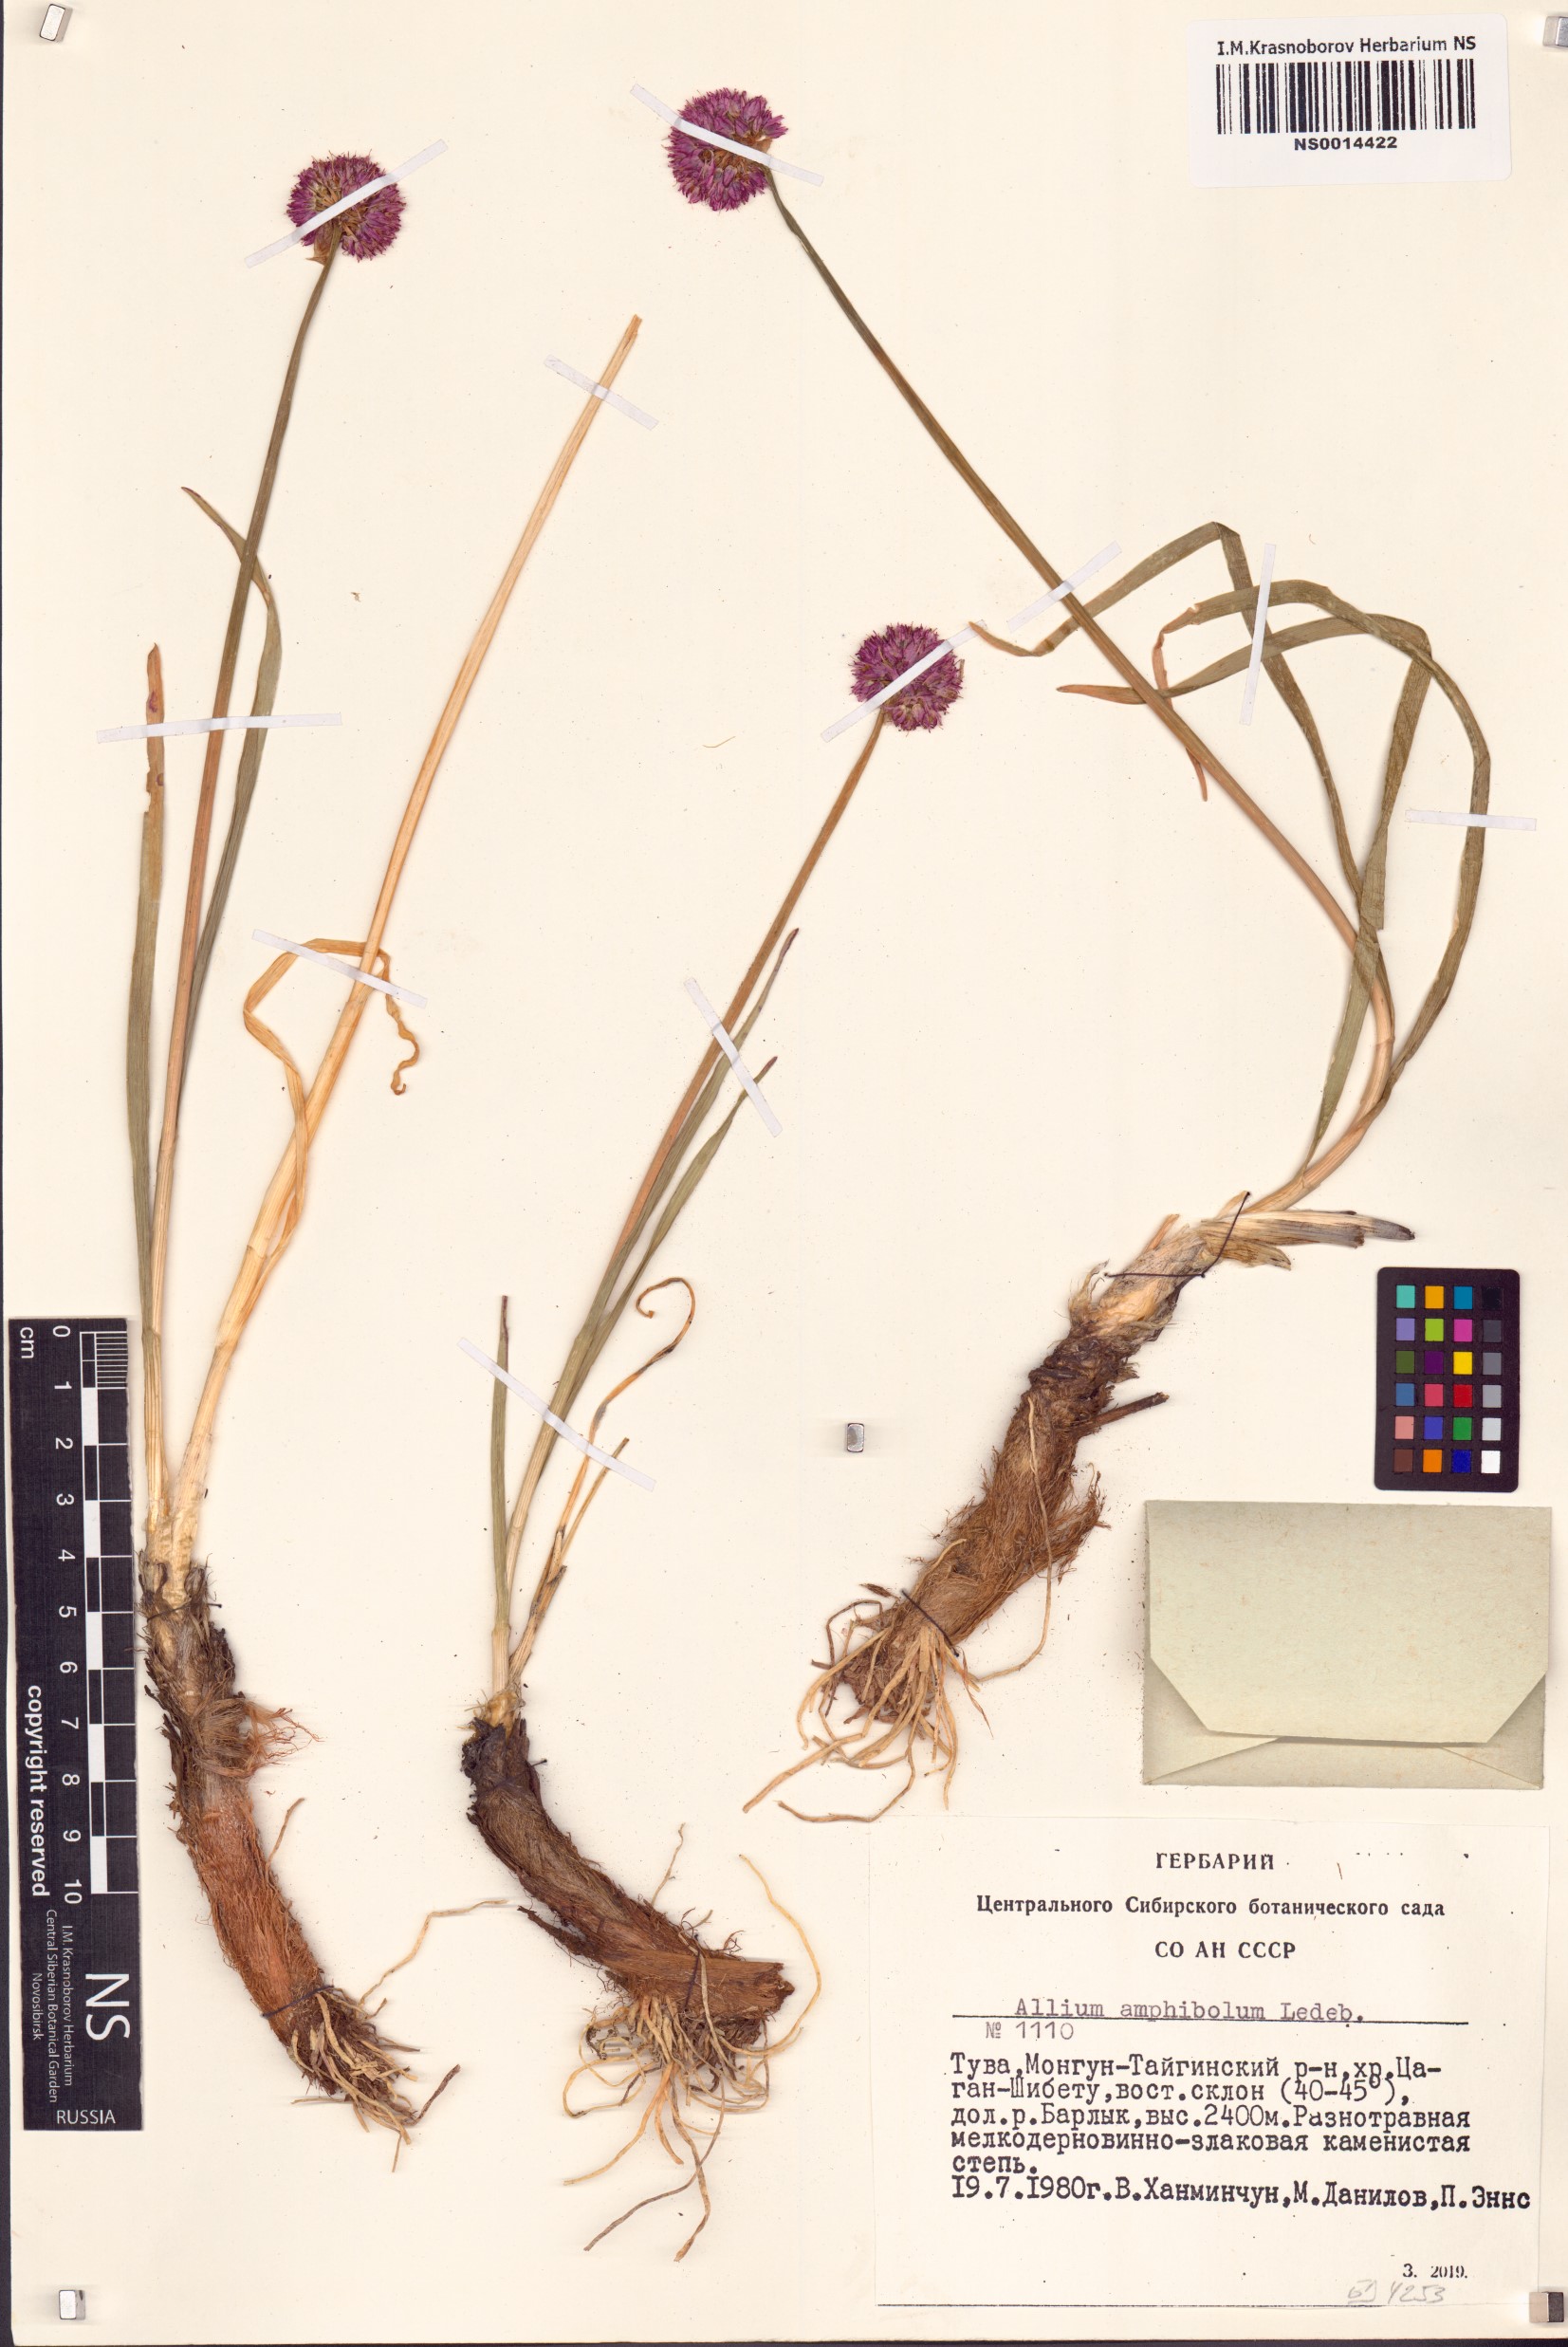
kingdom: Plantae
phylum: Tracheophyta
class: Liliopsida
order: Asparagales
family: Amaryllidaceae
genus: Allium
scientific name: Allium amphibolum
